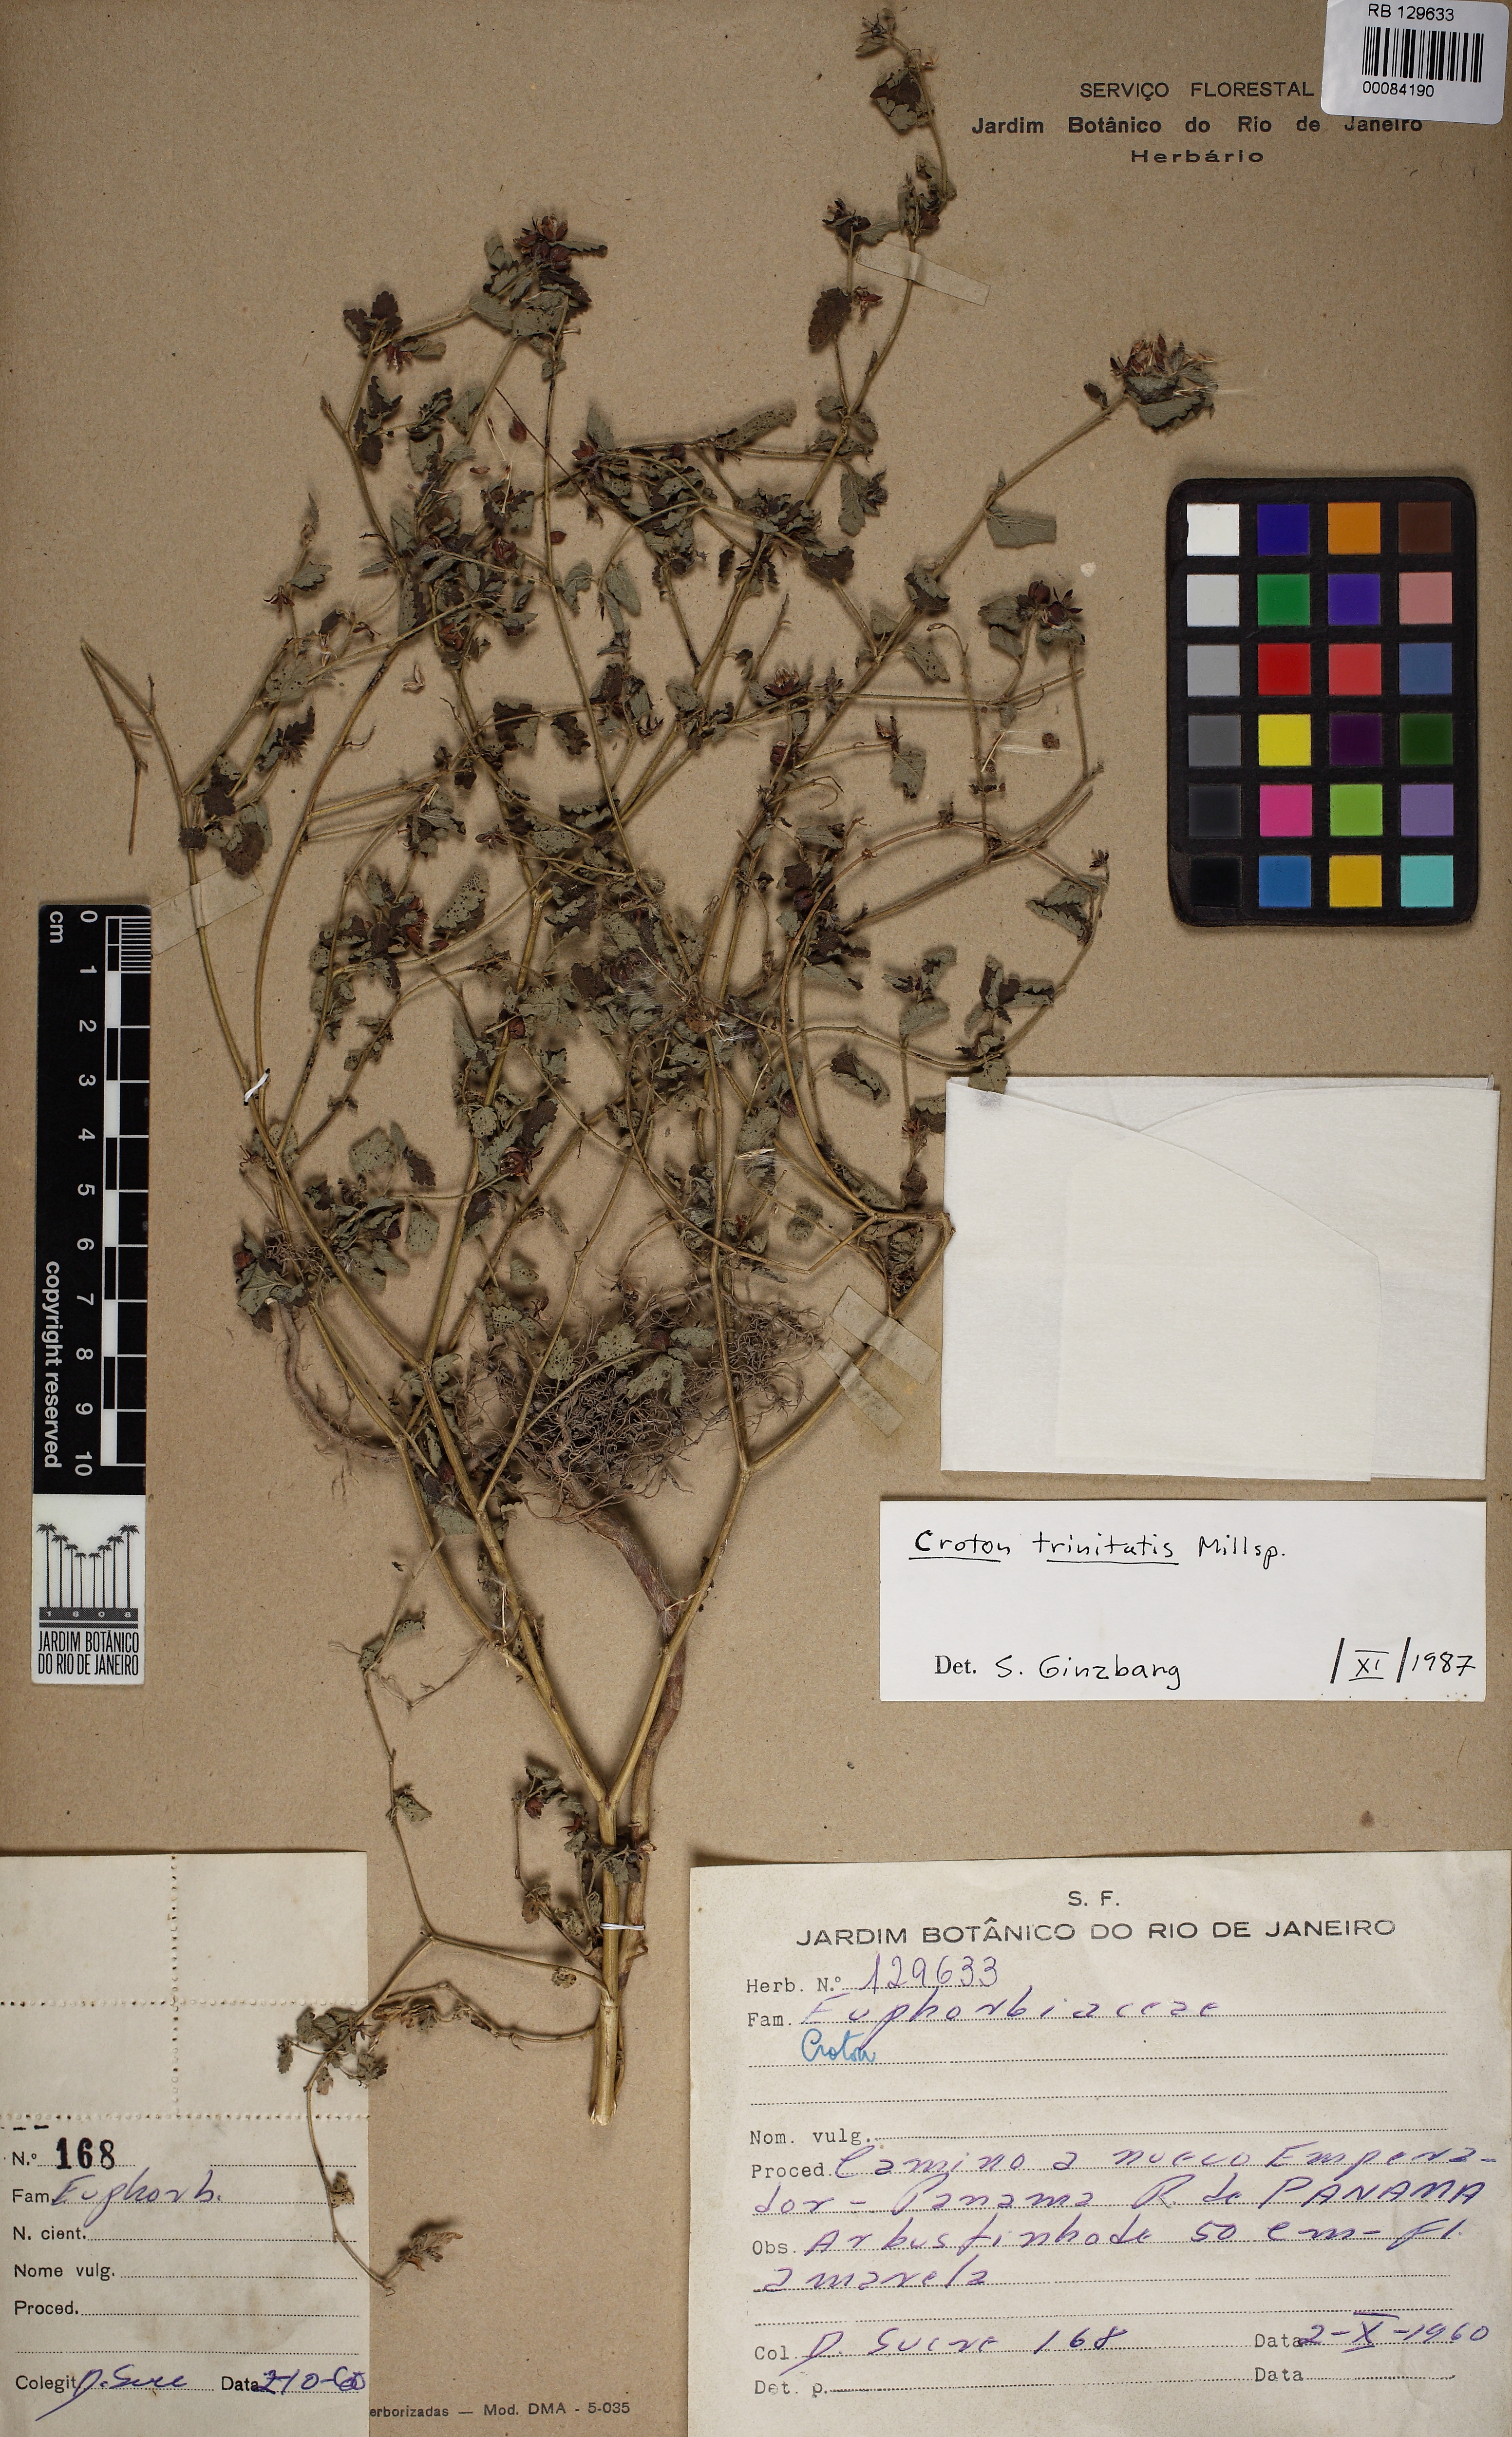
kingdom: Plantae
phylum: Tracheophyta
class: Magnoliopsida
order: Malpighiales
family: Euphorbiaceae
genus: Croton
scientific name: Croton trinitatis
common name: Roadside croton
